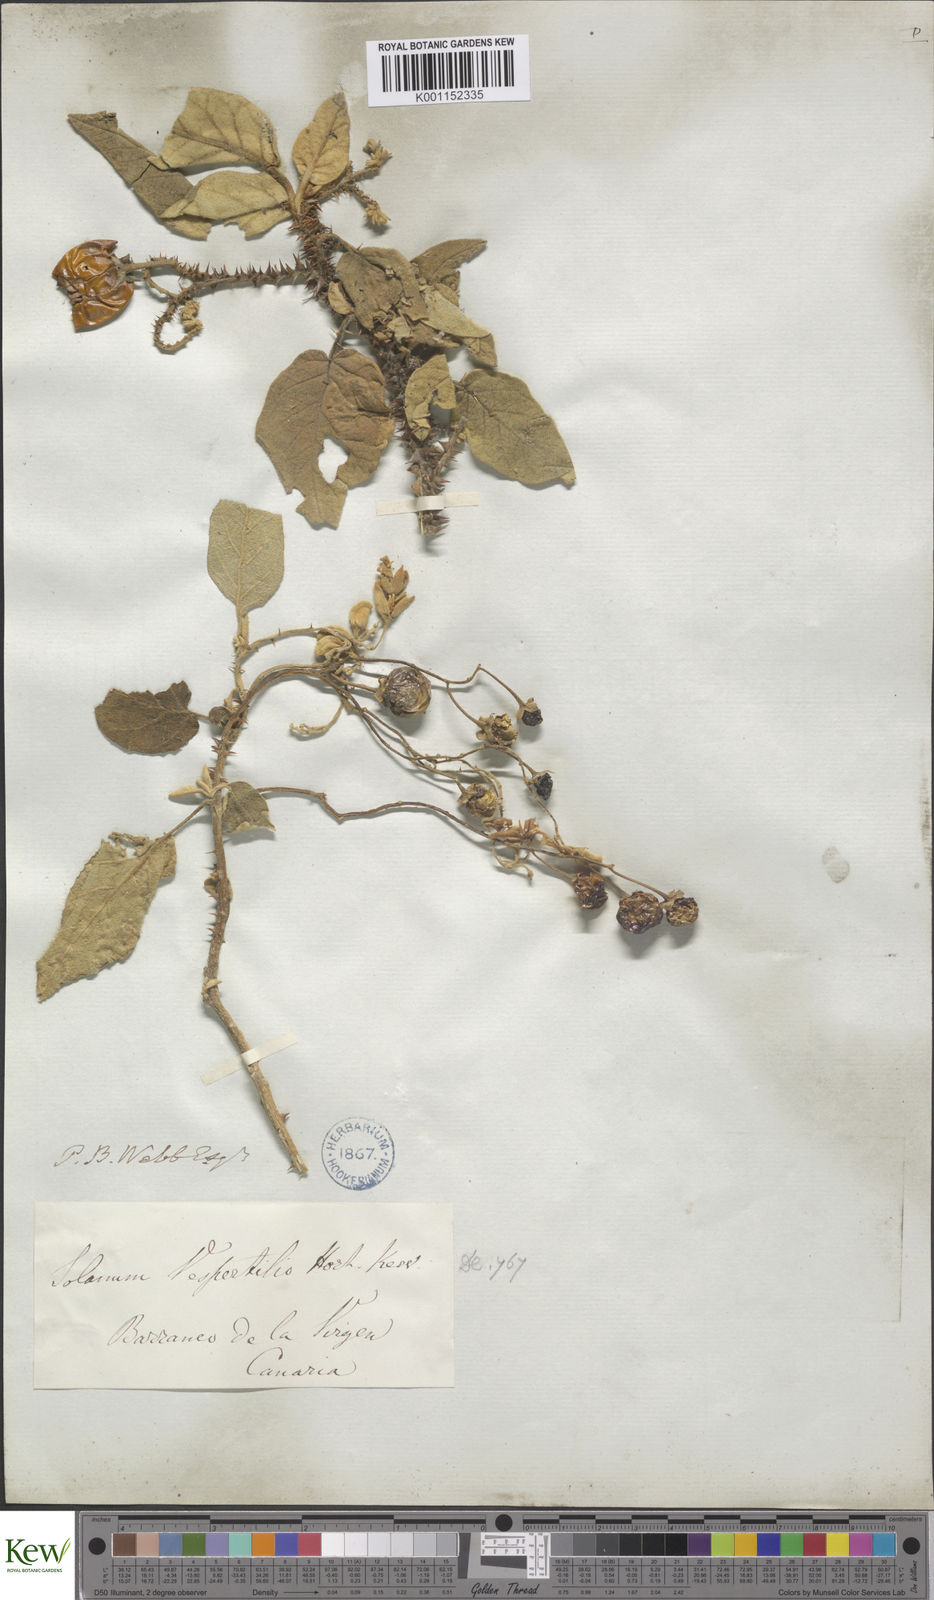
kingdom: Plantae
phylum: Tracheophyta
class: Magnoliopsida
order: Solanales
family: Solanaceae
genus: Solanum
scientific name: Solanum vespertilio
